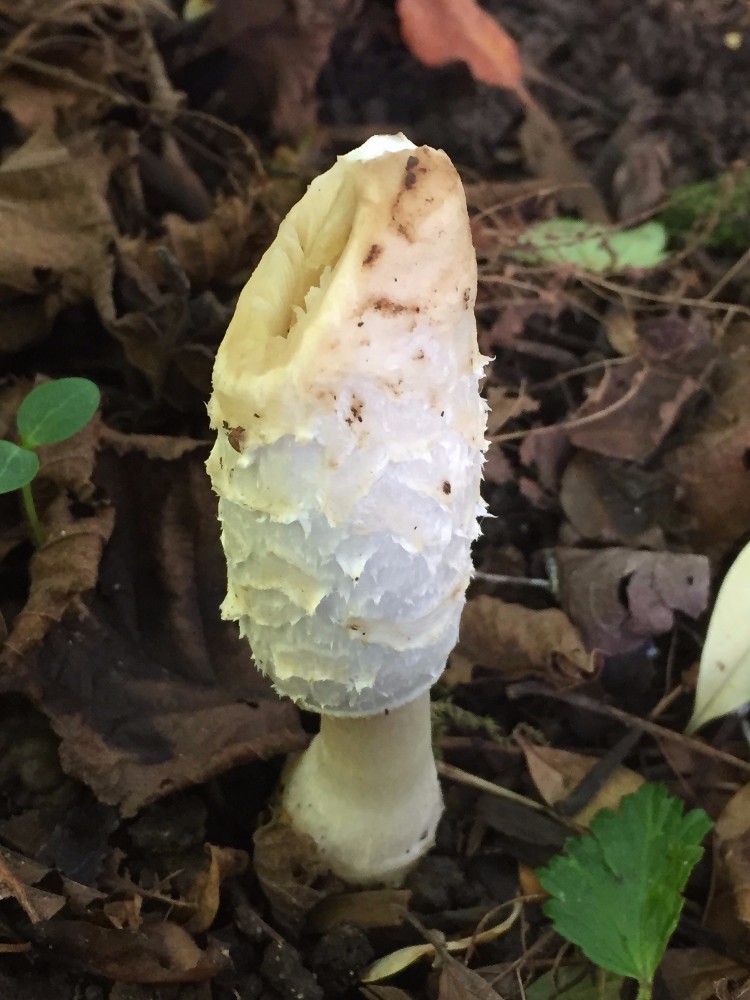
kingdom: Fungi
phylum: Basidiomycota
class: Agaricomycetes
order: Agaricales
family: Agaricaceae
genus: Coprinus
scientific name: Coprinus comatus
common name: stor parykhat
